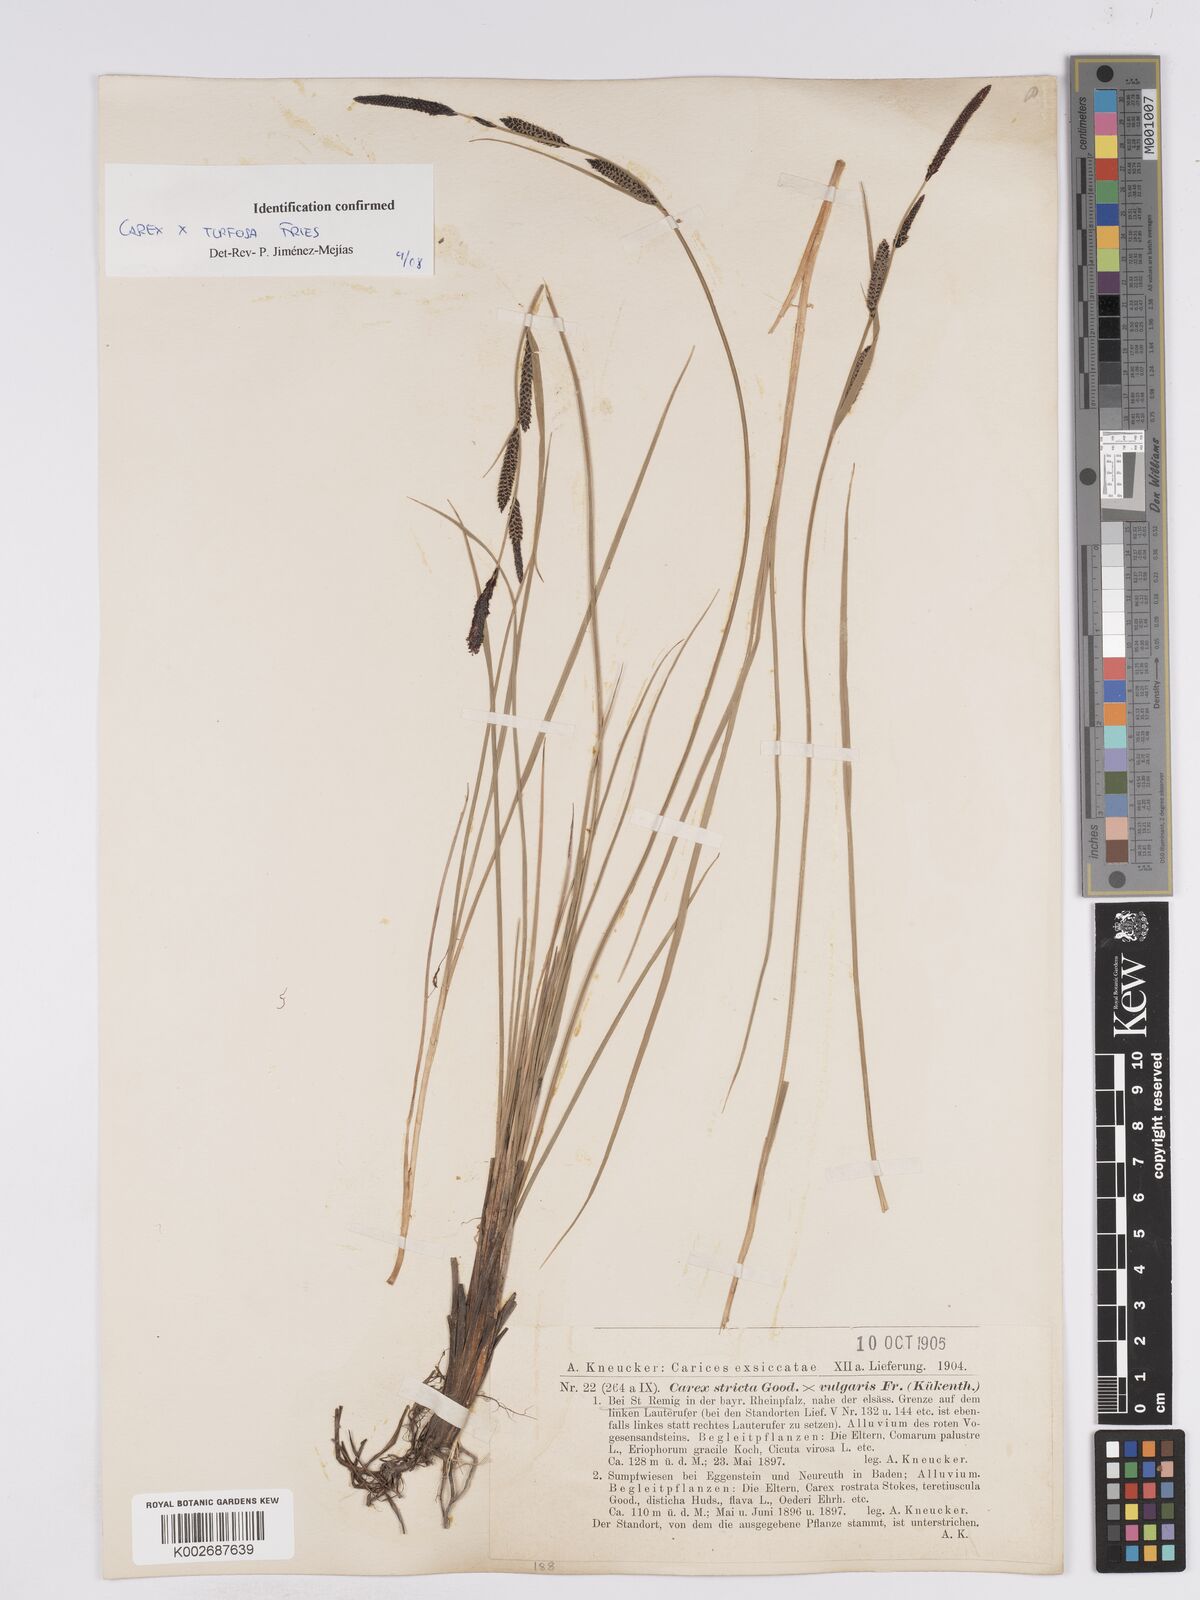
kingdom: Plantae
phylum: Tracheophyta
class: Liliopsida
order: Poales
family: Cyperaceae
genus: Carex
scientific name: Carex nigra
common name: Common sedge
